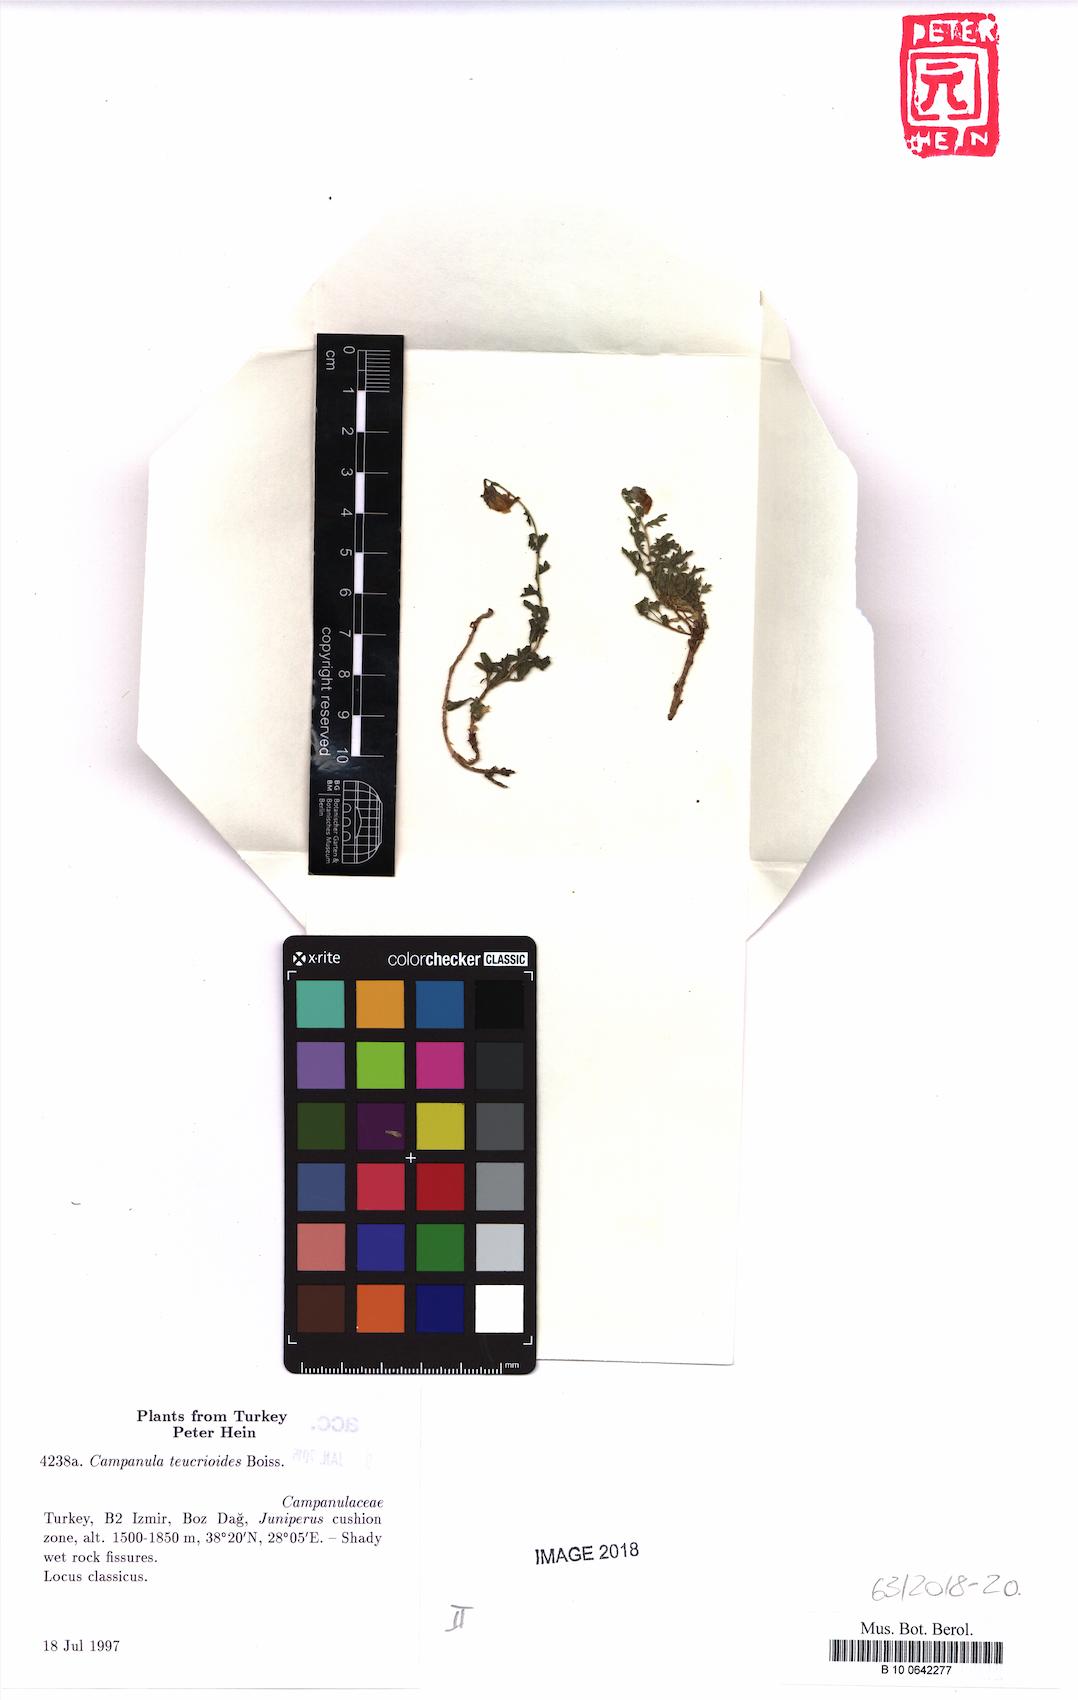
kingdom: Plantae
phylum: Tracheophyta
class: Magnoliopsida
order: Asterales
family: Campanulaceae
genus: Campanula
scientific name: Campanula teucrioides
